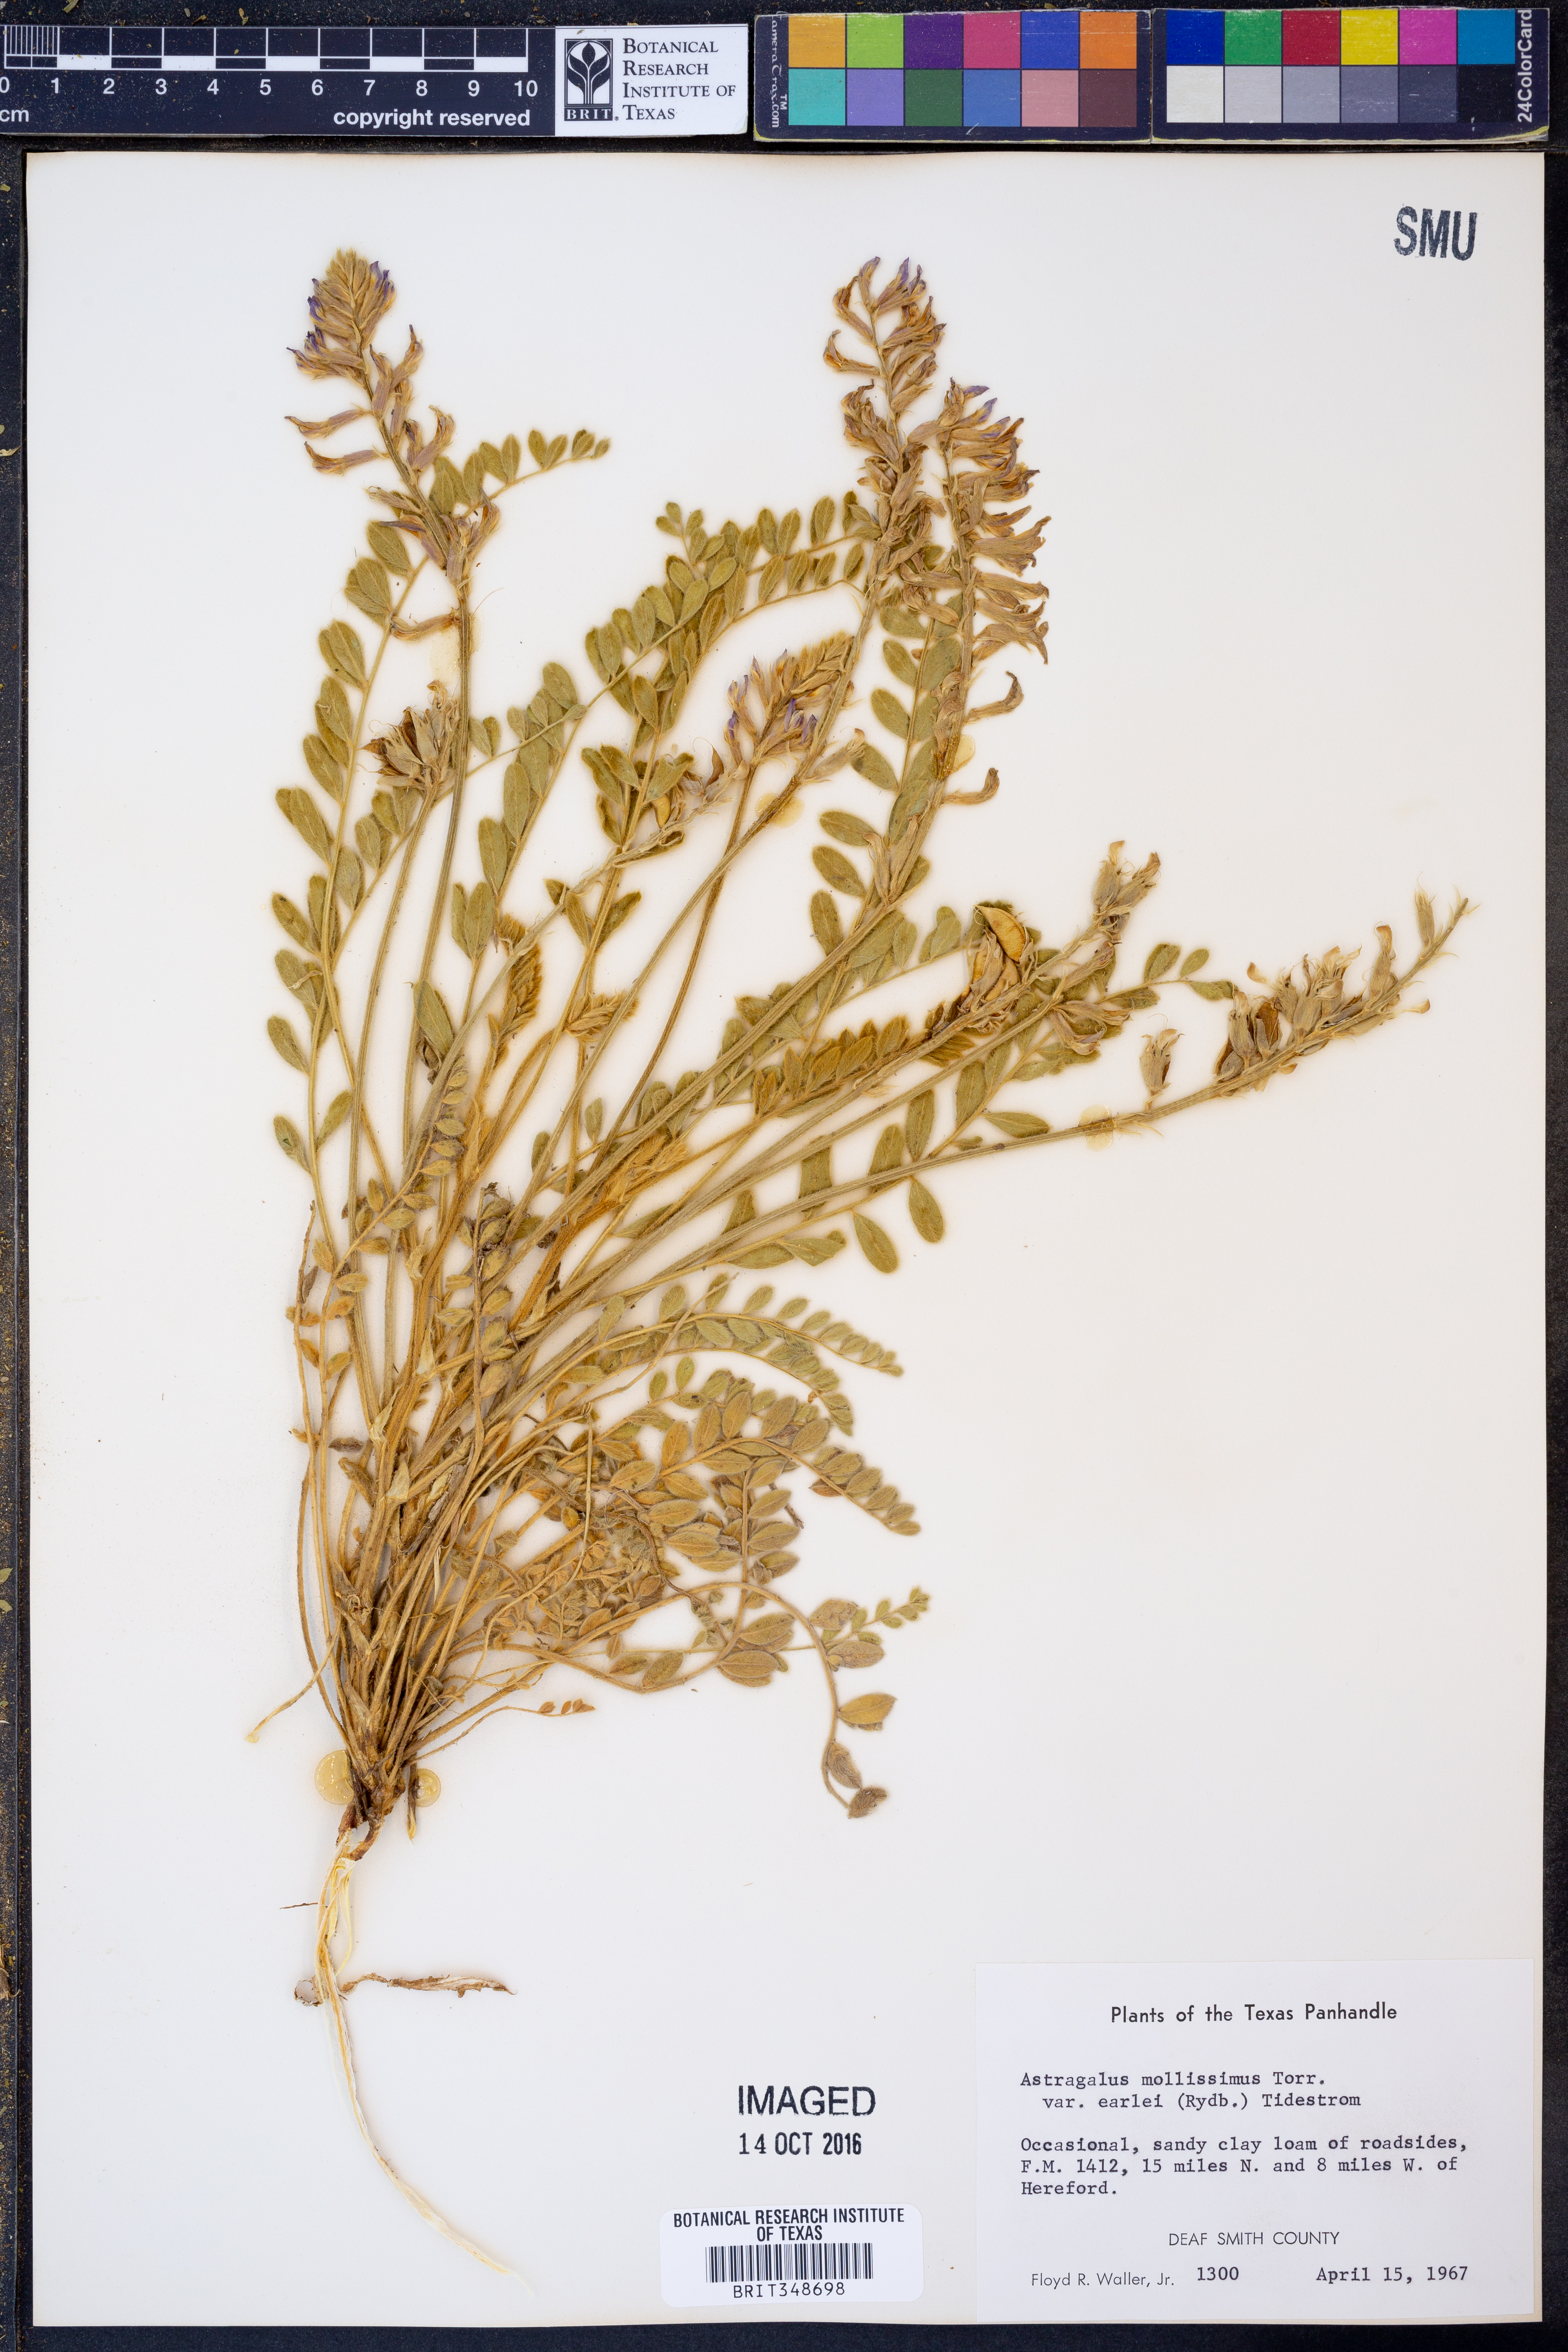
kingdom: Plantae
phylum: Tracheophyta
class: Magnoliopsida
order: Fabales
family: Fabaceae
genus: Astragalus
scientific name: Astragalus mollissimus
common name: Woolly locoweed
